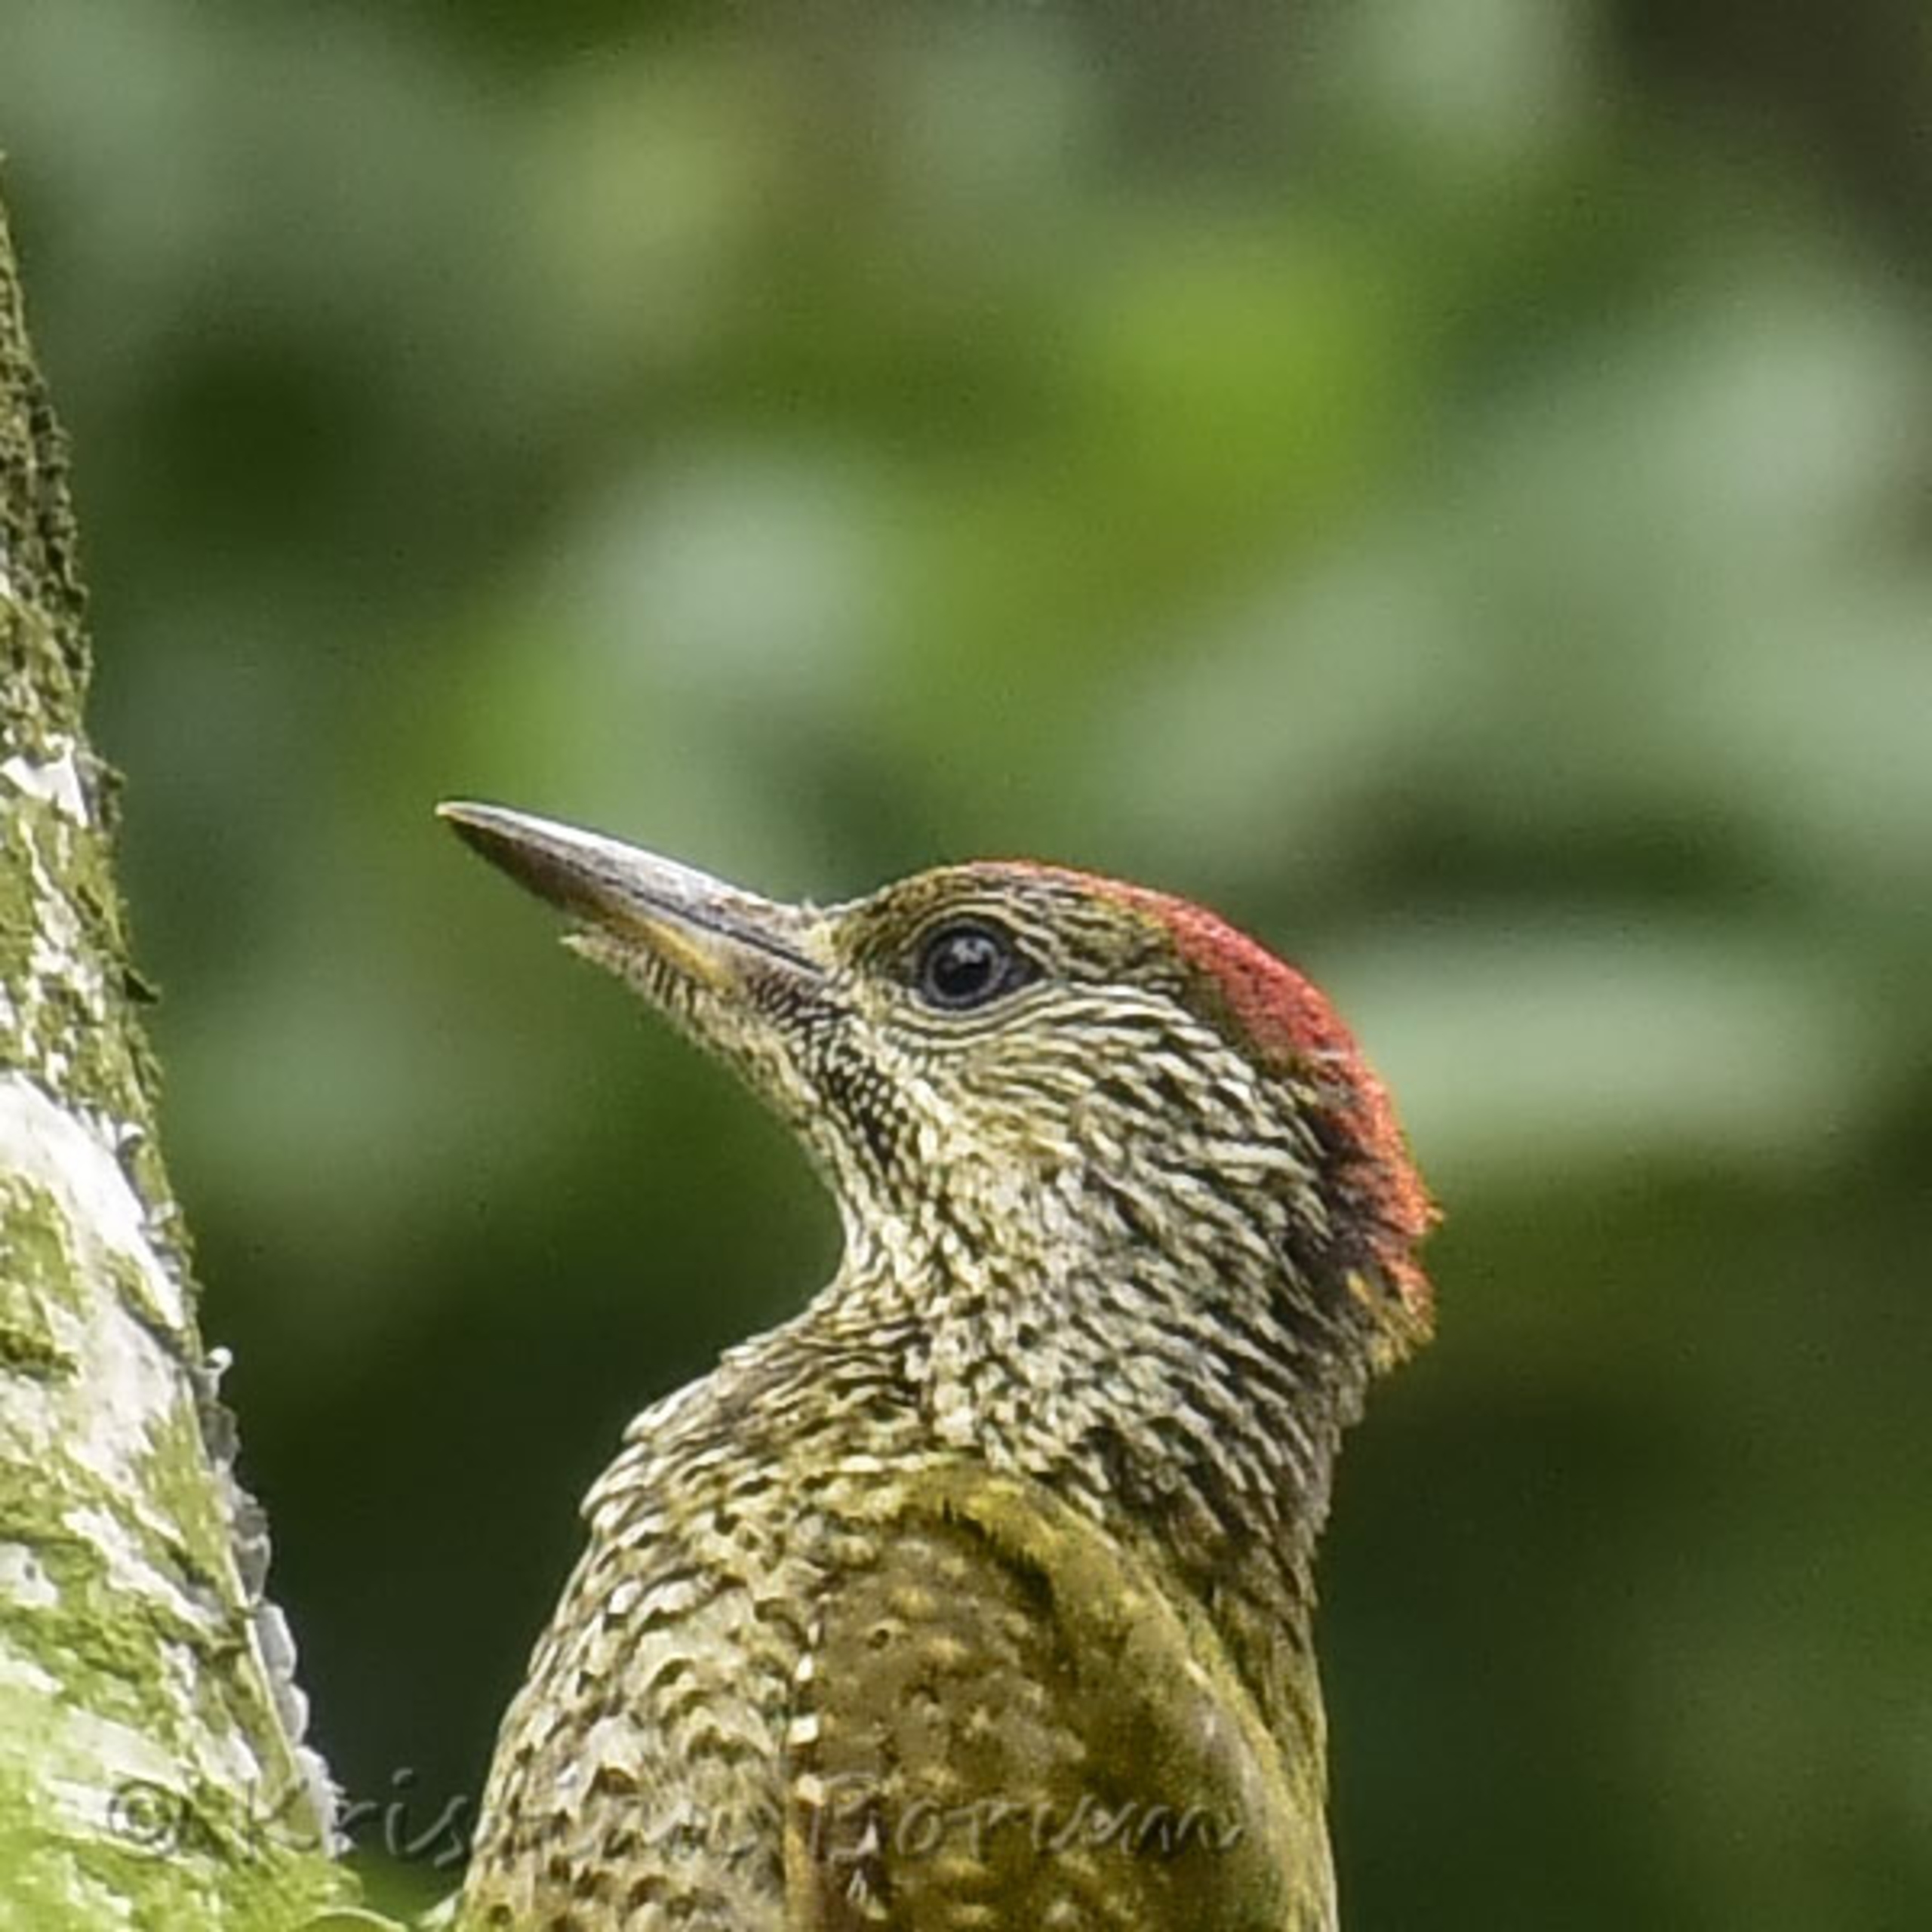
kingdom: Animalia
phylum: Chordata
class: Aves
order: Piciformes
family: Picidae
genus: Picus
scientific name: Picus viridis
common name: Grønspætte
